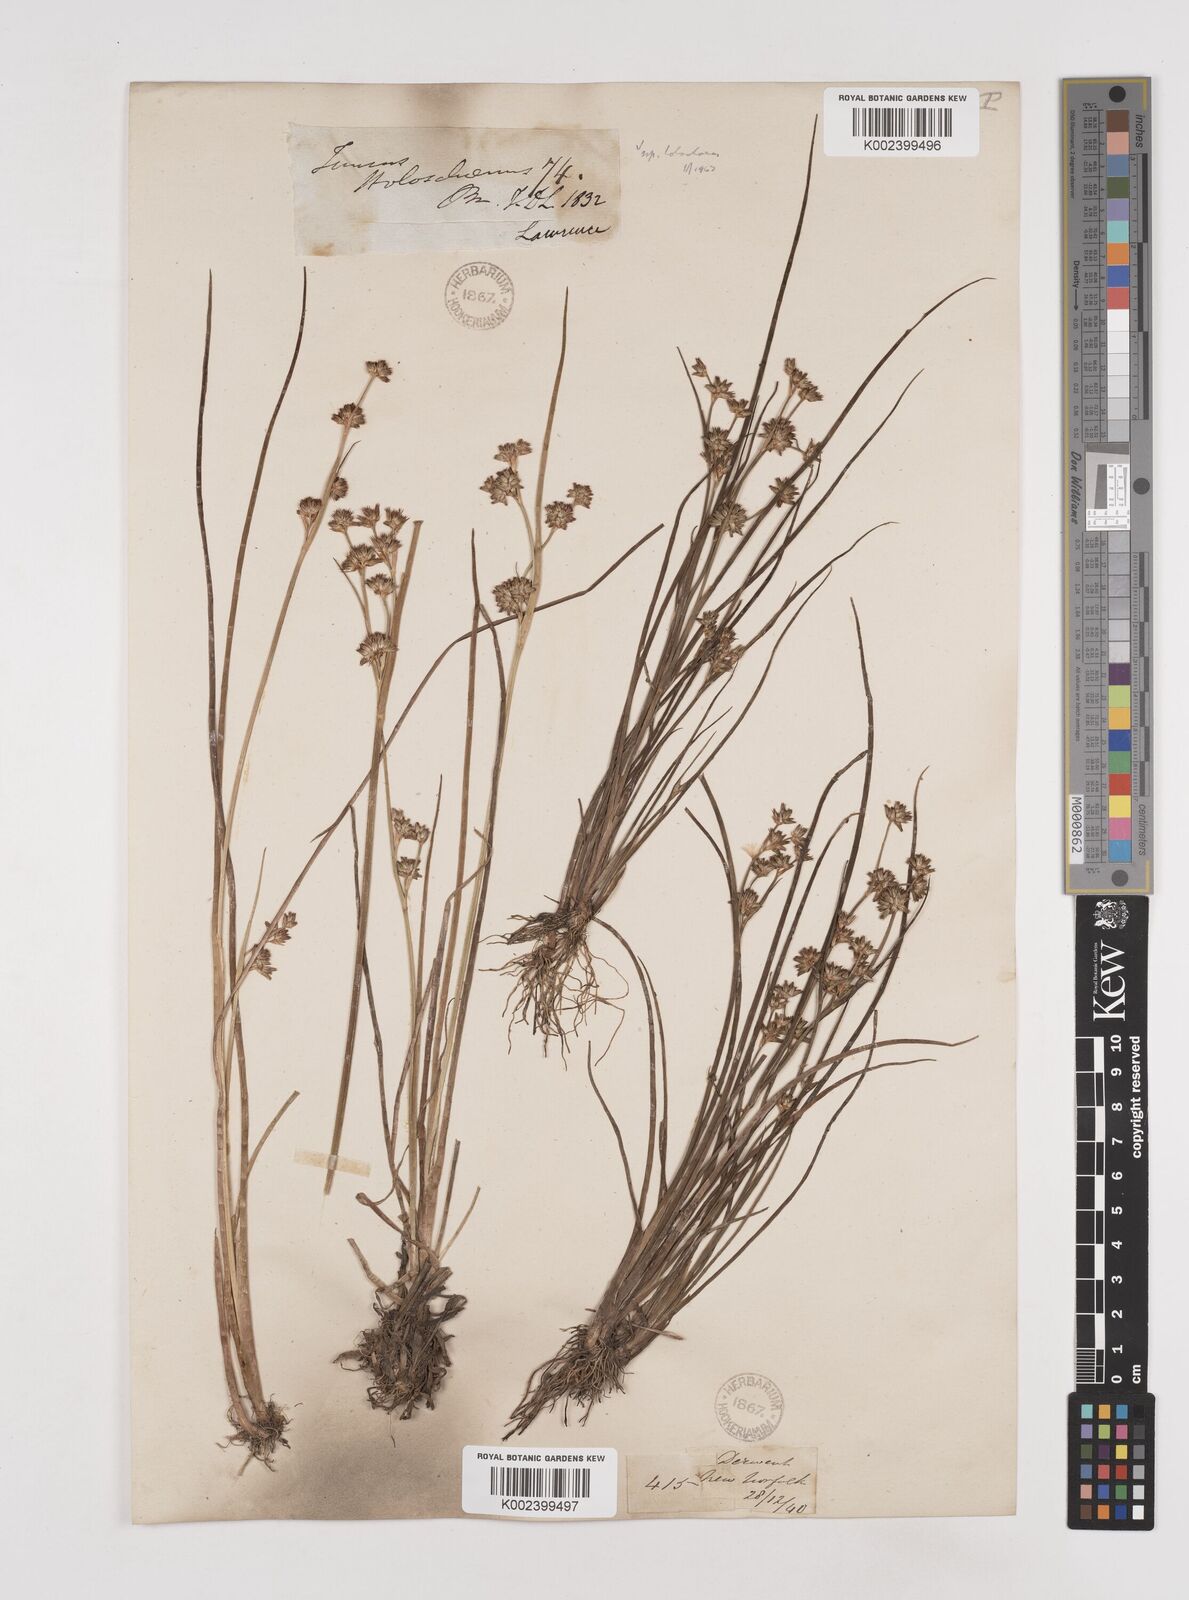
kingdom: Plantae
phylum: Tracheophyta
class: Liliopsida
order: Poales
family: Juncaceae
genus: Juncus
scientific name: Juncus holoschoenus
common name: Joint-leaf rush
